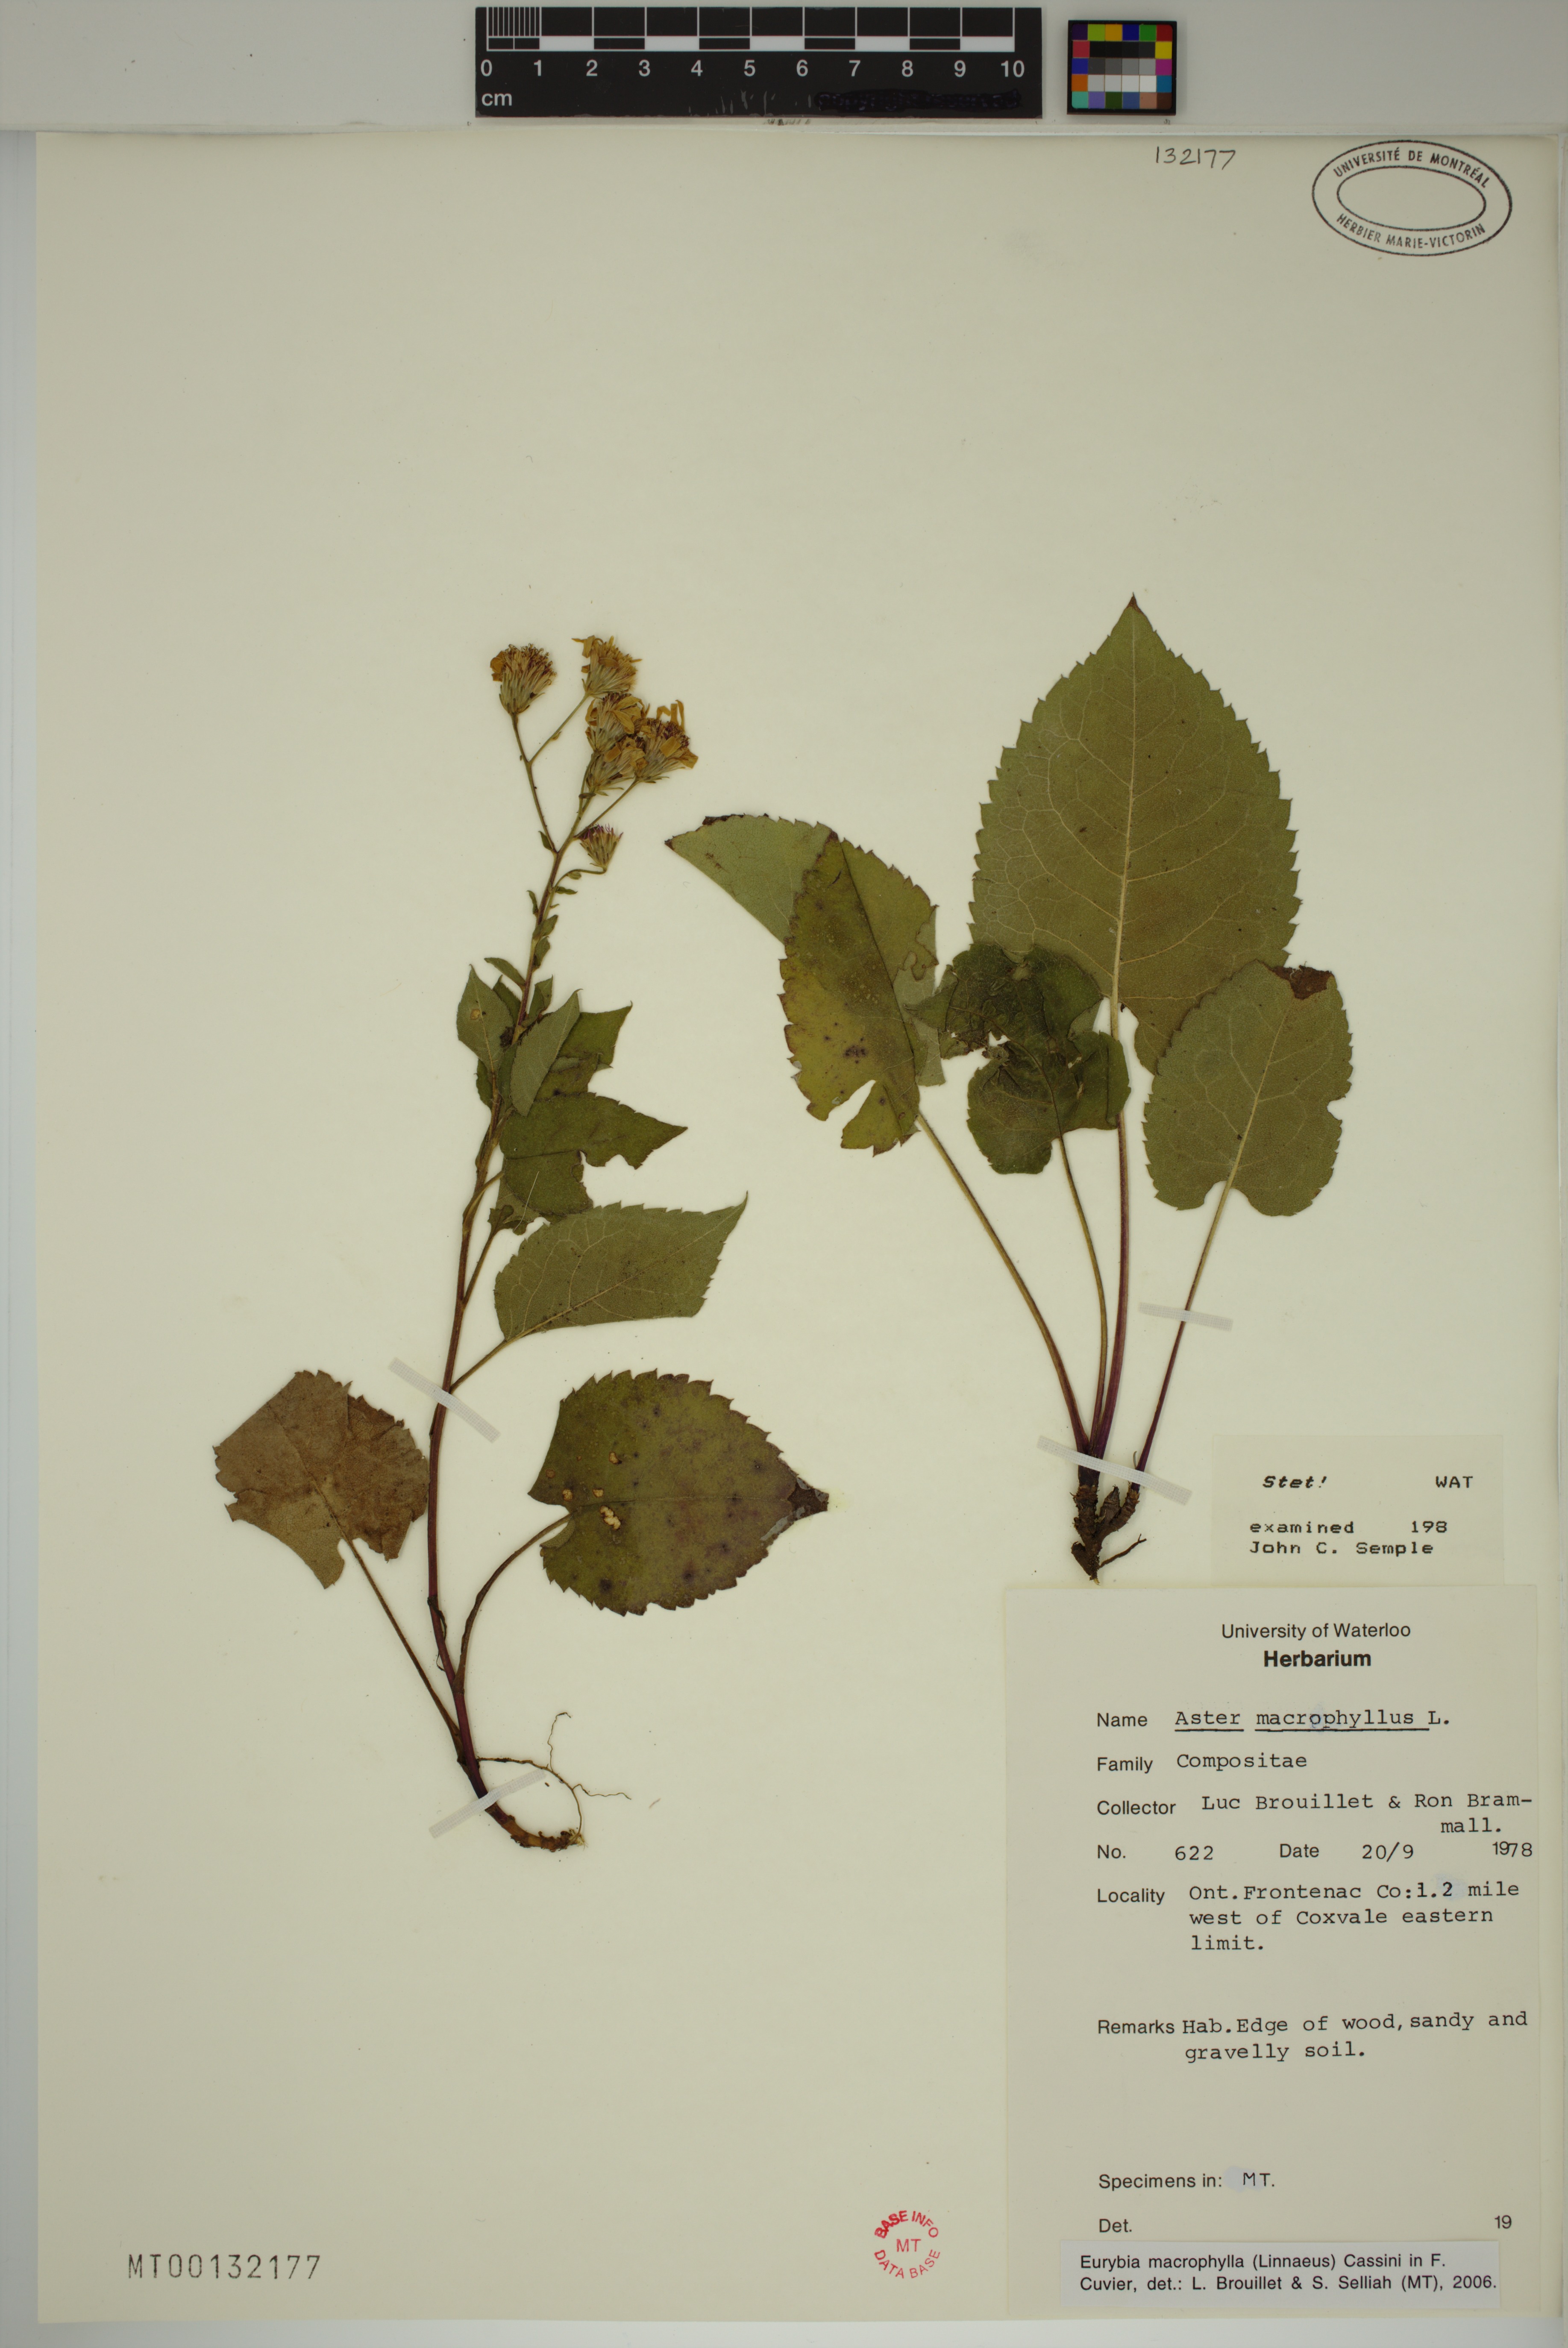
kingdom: Plantae
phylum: Tracheophyta
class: Magnoliopsida
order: Asterales
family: Asteraceae
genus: Eurybia
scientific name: Eurybia macrophylla
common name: Big-leaved aster
